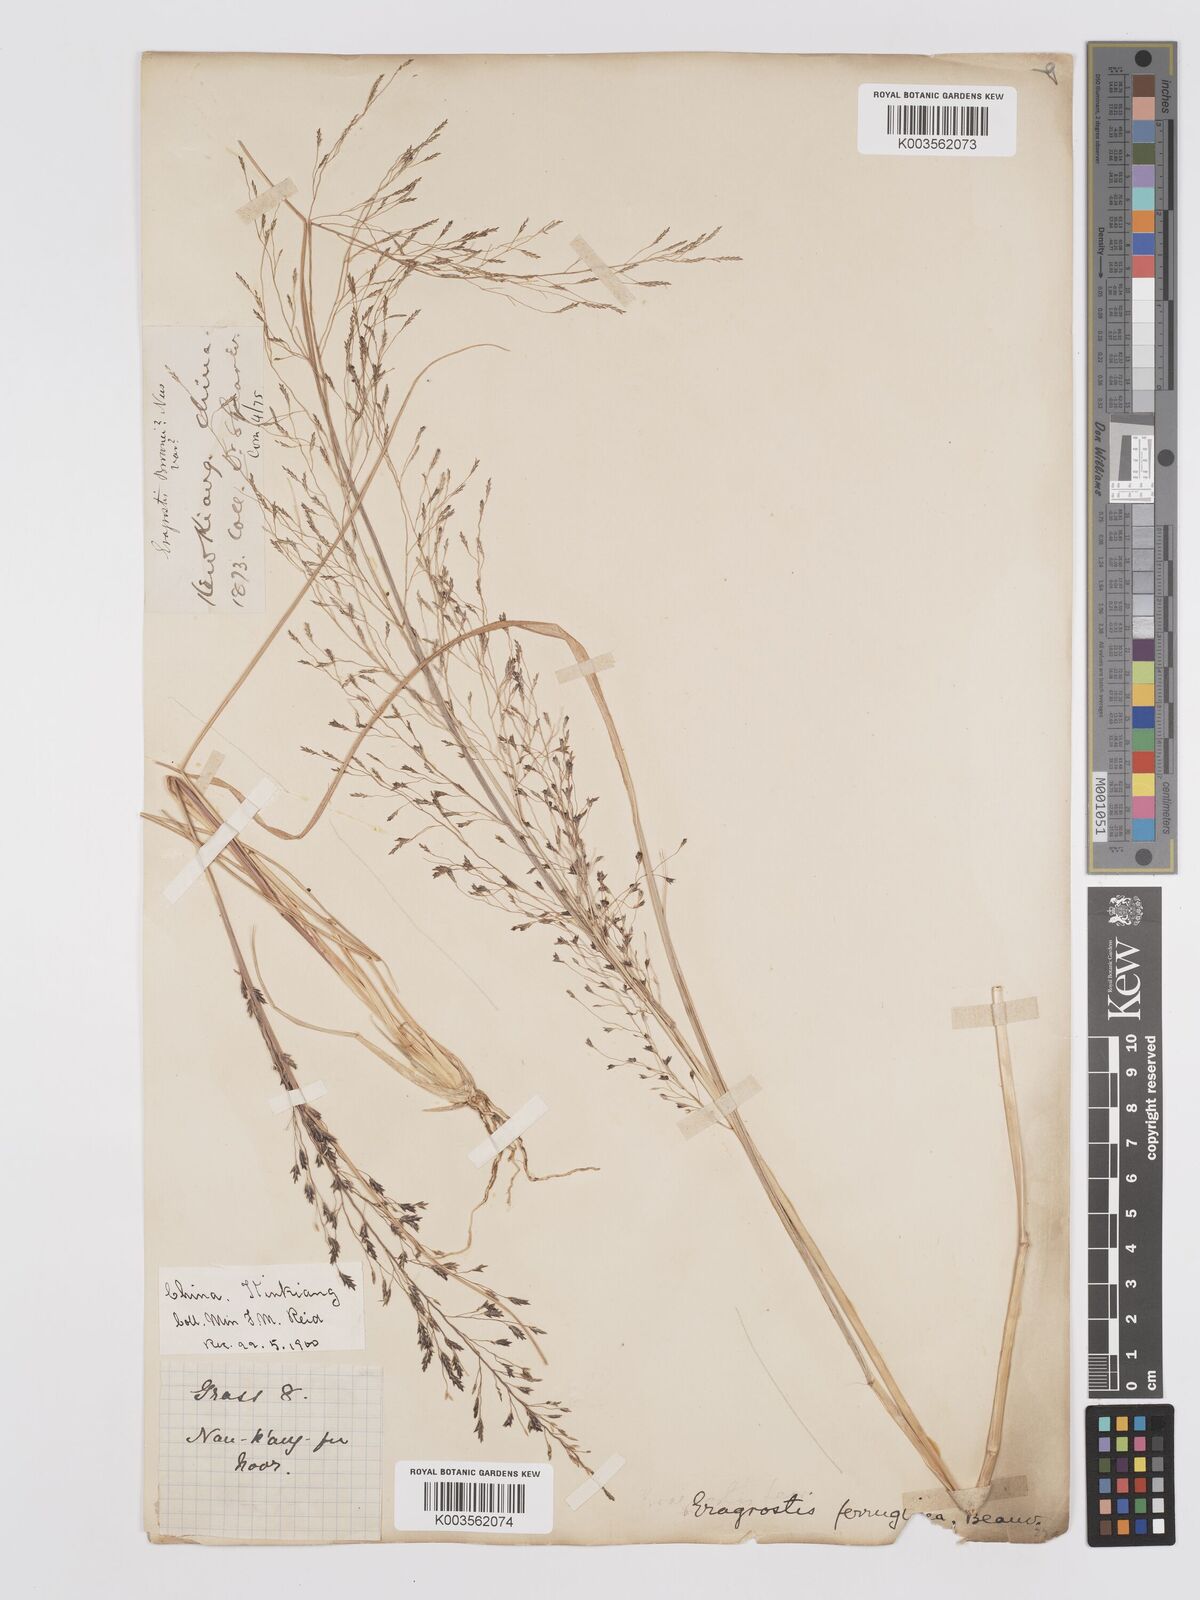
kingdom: Plantae
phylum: Tracheophyta
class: Liliopsida
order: Poales
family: Poaceae
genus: Eragrostis
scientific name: Eragrostis ferruginea
